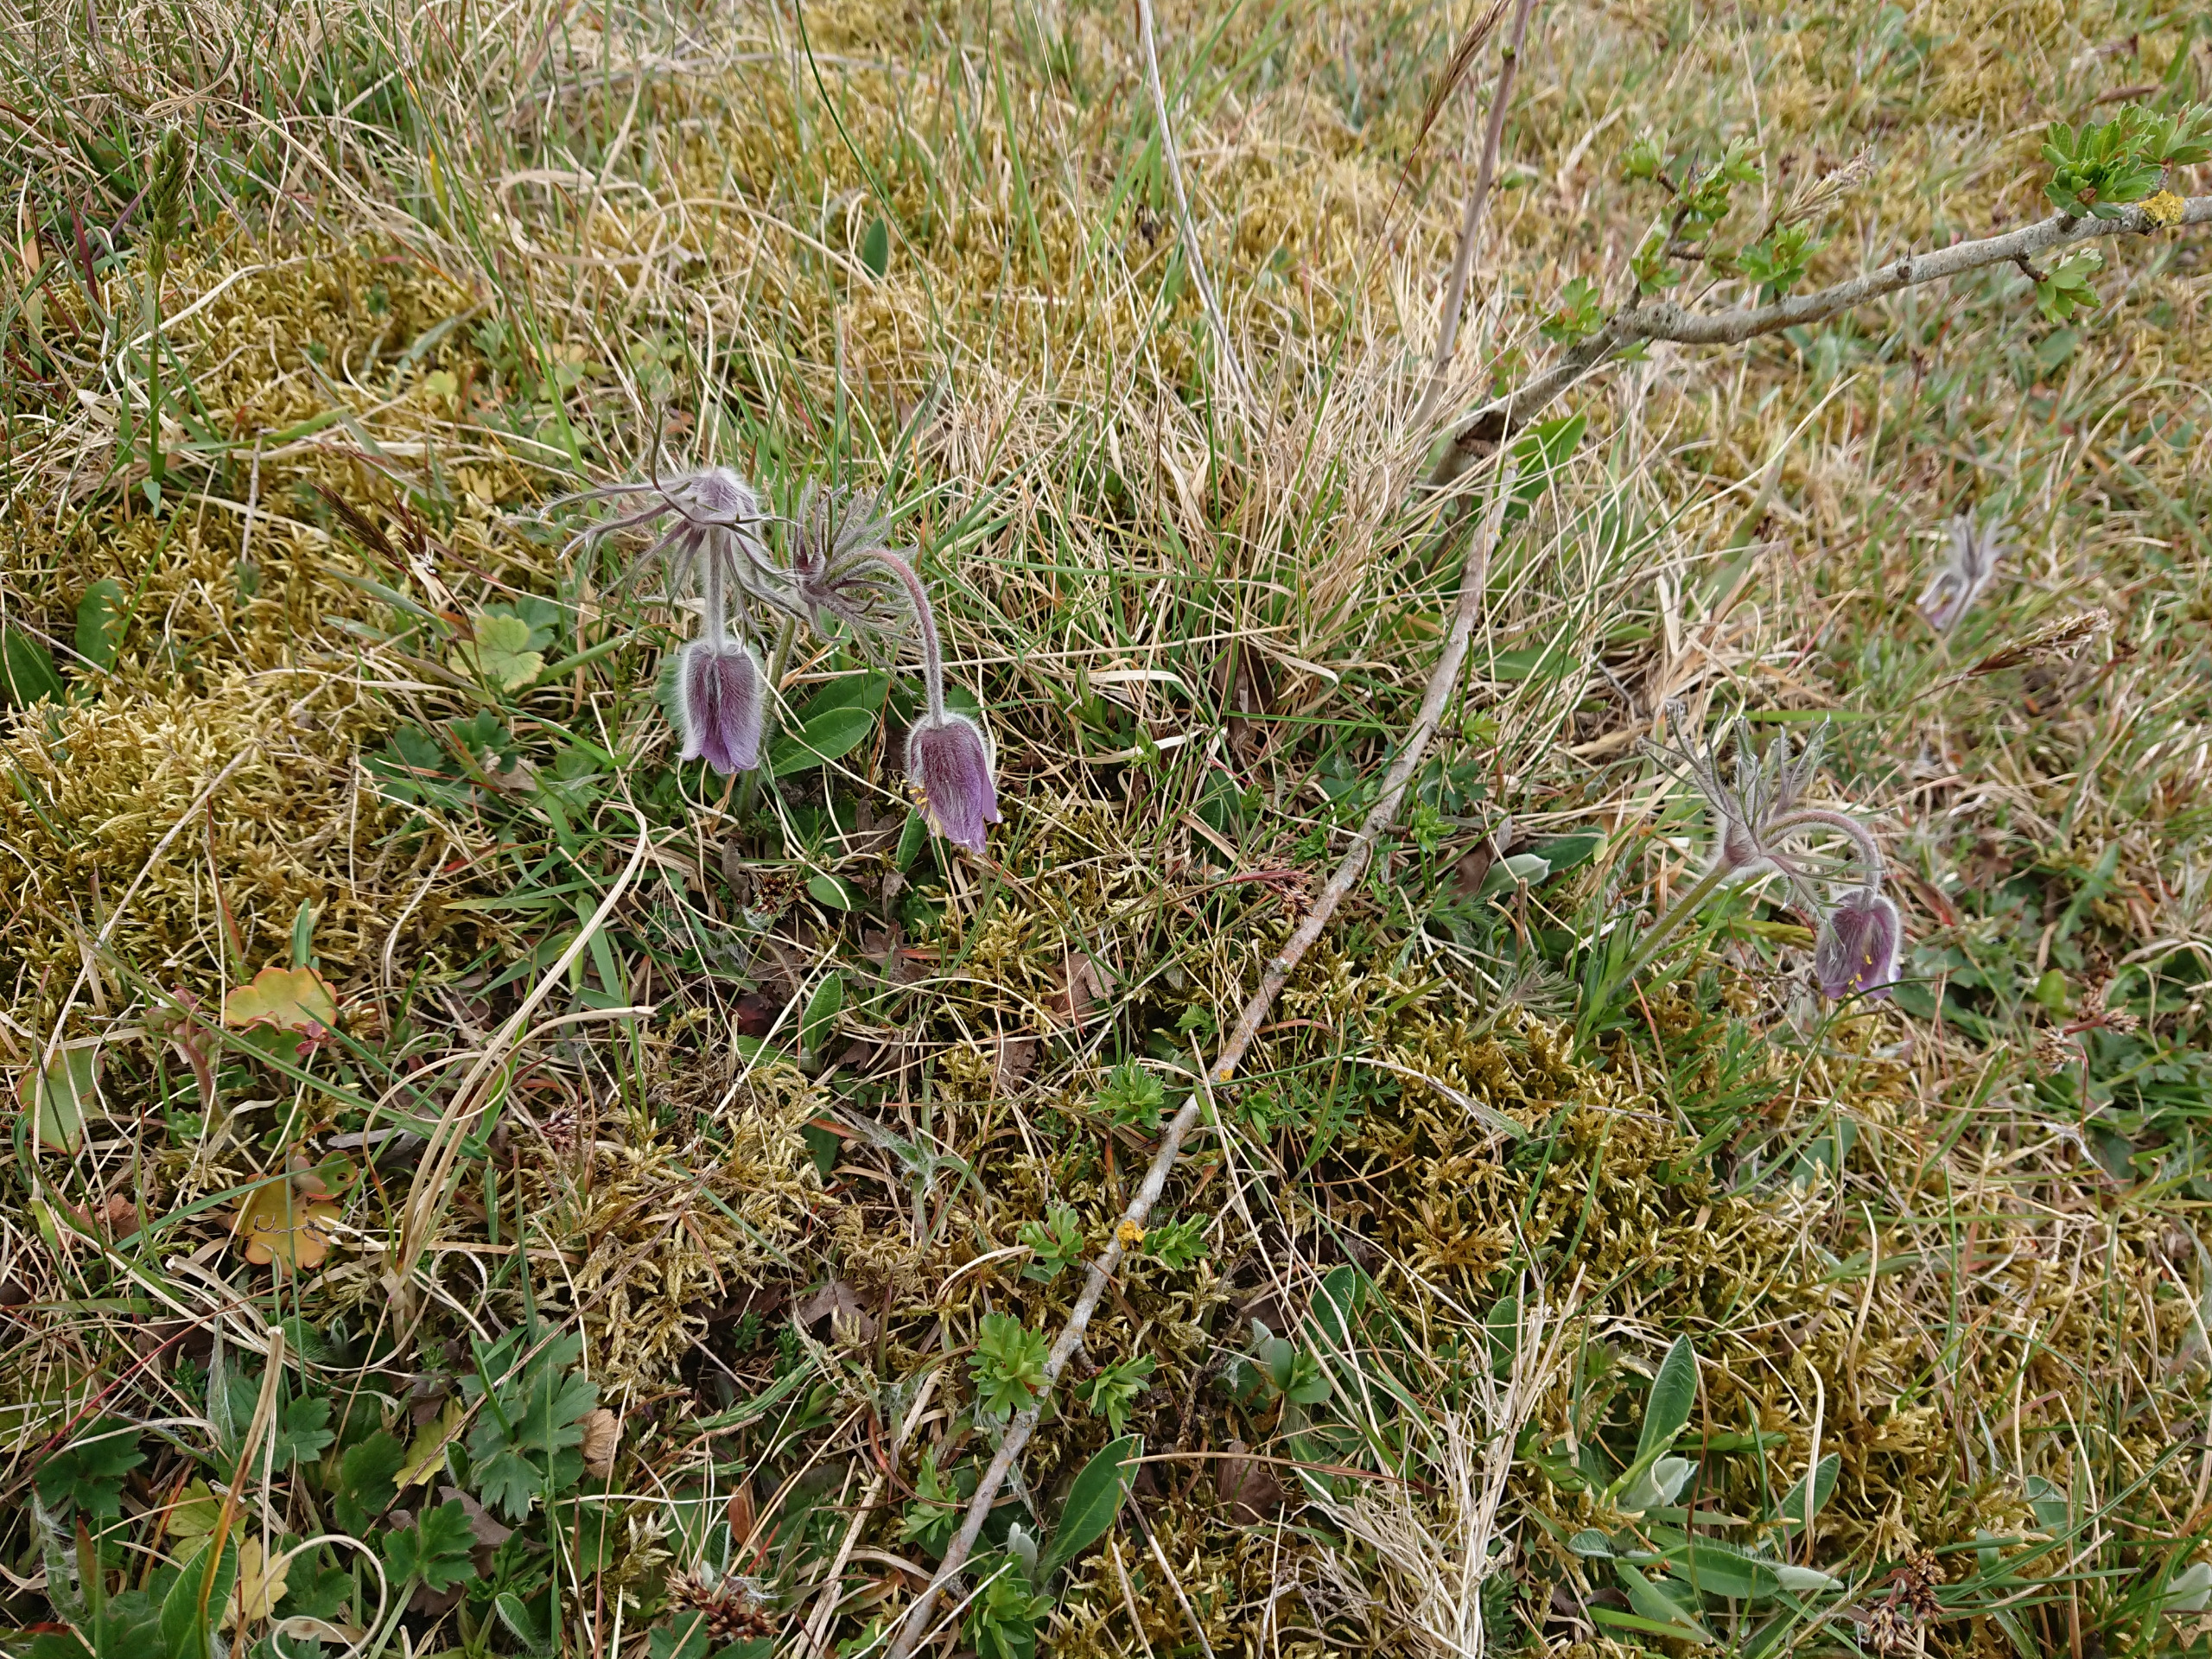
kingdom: Plantae
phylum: Tracheophyta
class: Magnoliopsida
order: Ranunculales
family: Ranunculaceae
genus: Pulsatilla
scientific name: Pulsatilla pratensis
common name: Nikkende kobjælde
